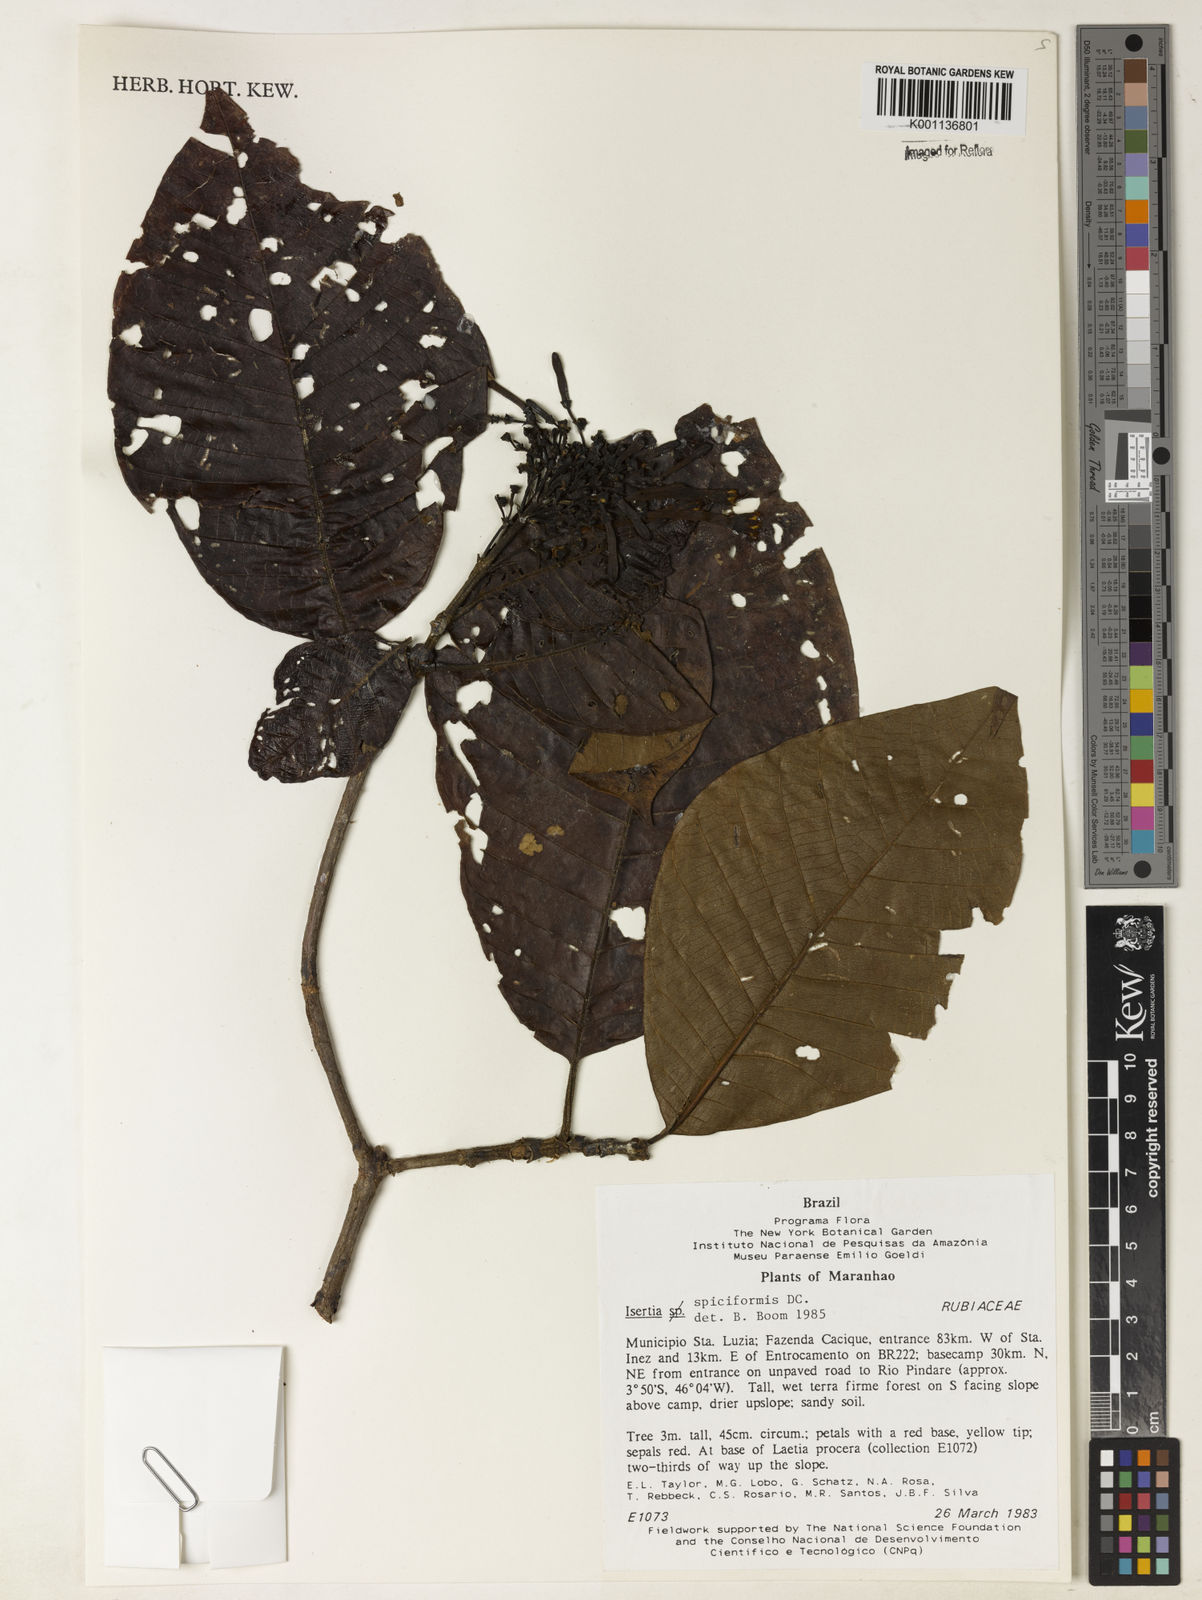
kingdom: Plantae
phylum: Tracheophyta
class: Magnoliopsida
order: Gentianales
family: Rubiaceae
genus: Isertia
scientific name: Isertia spiciformis
